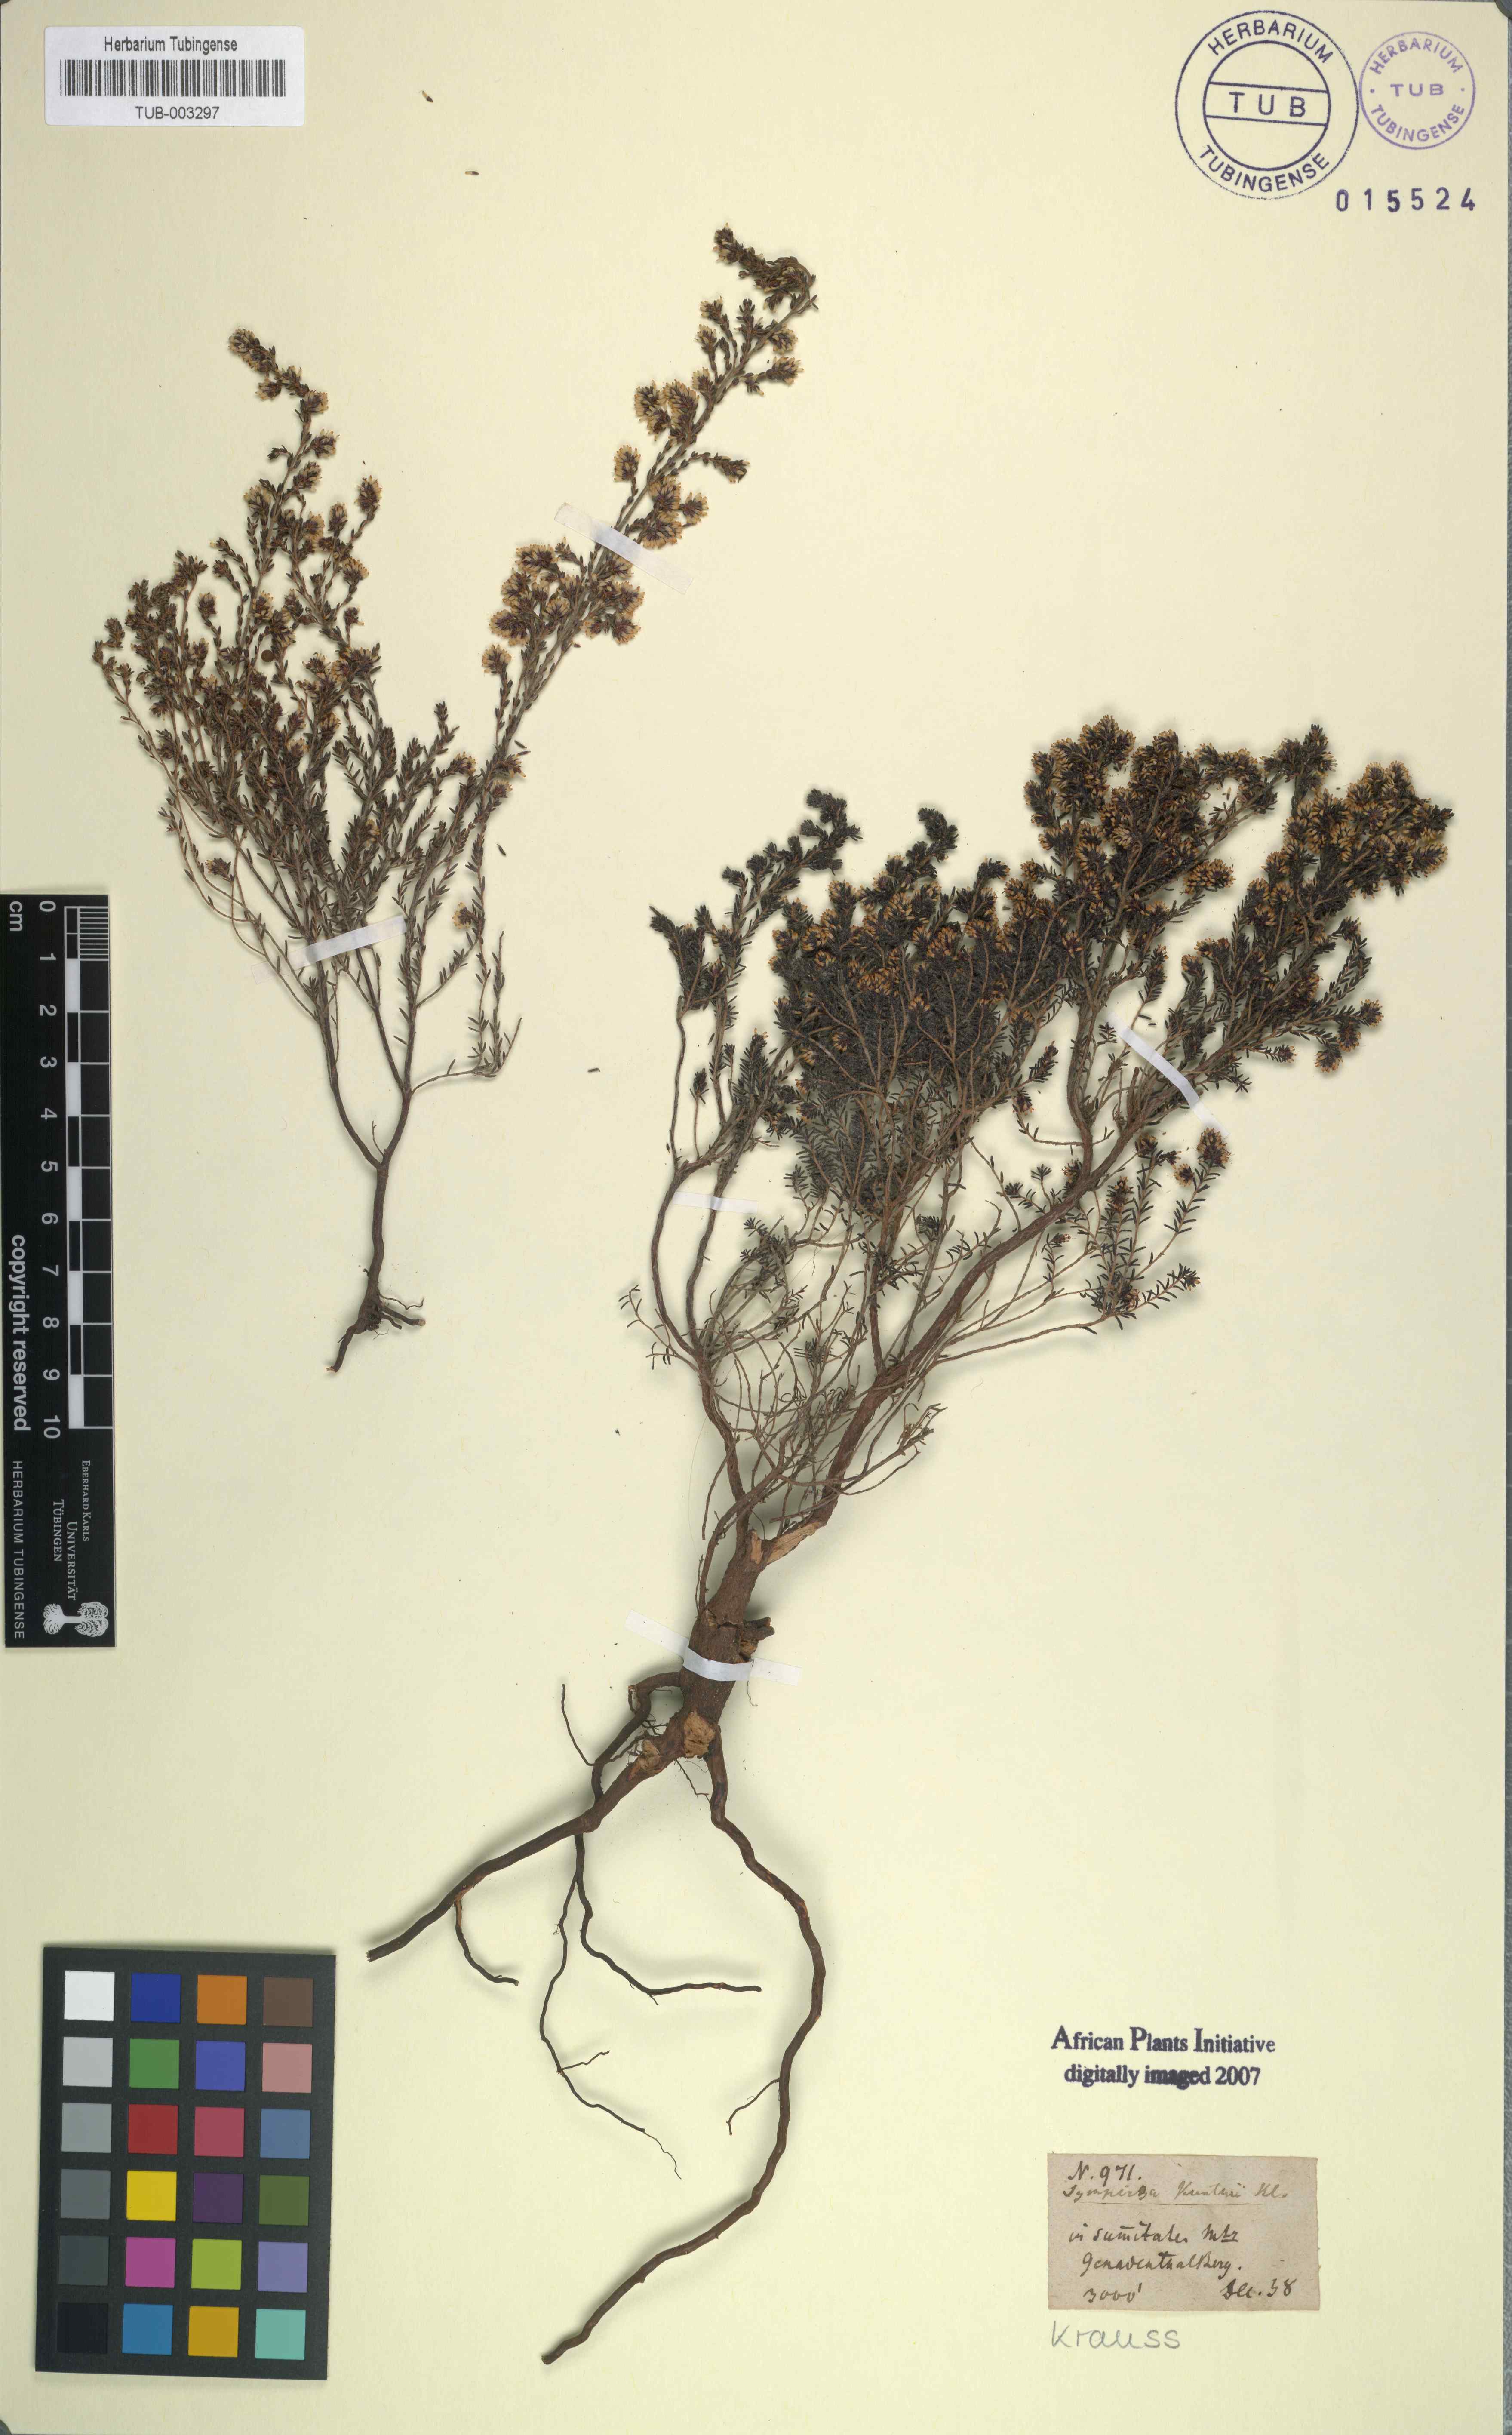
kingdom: Plantae
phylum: Tracheophyta
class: Magnoliopsida
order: Ericales
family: Ericaceae
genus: Erica
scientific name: Erica benthamiana
